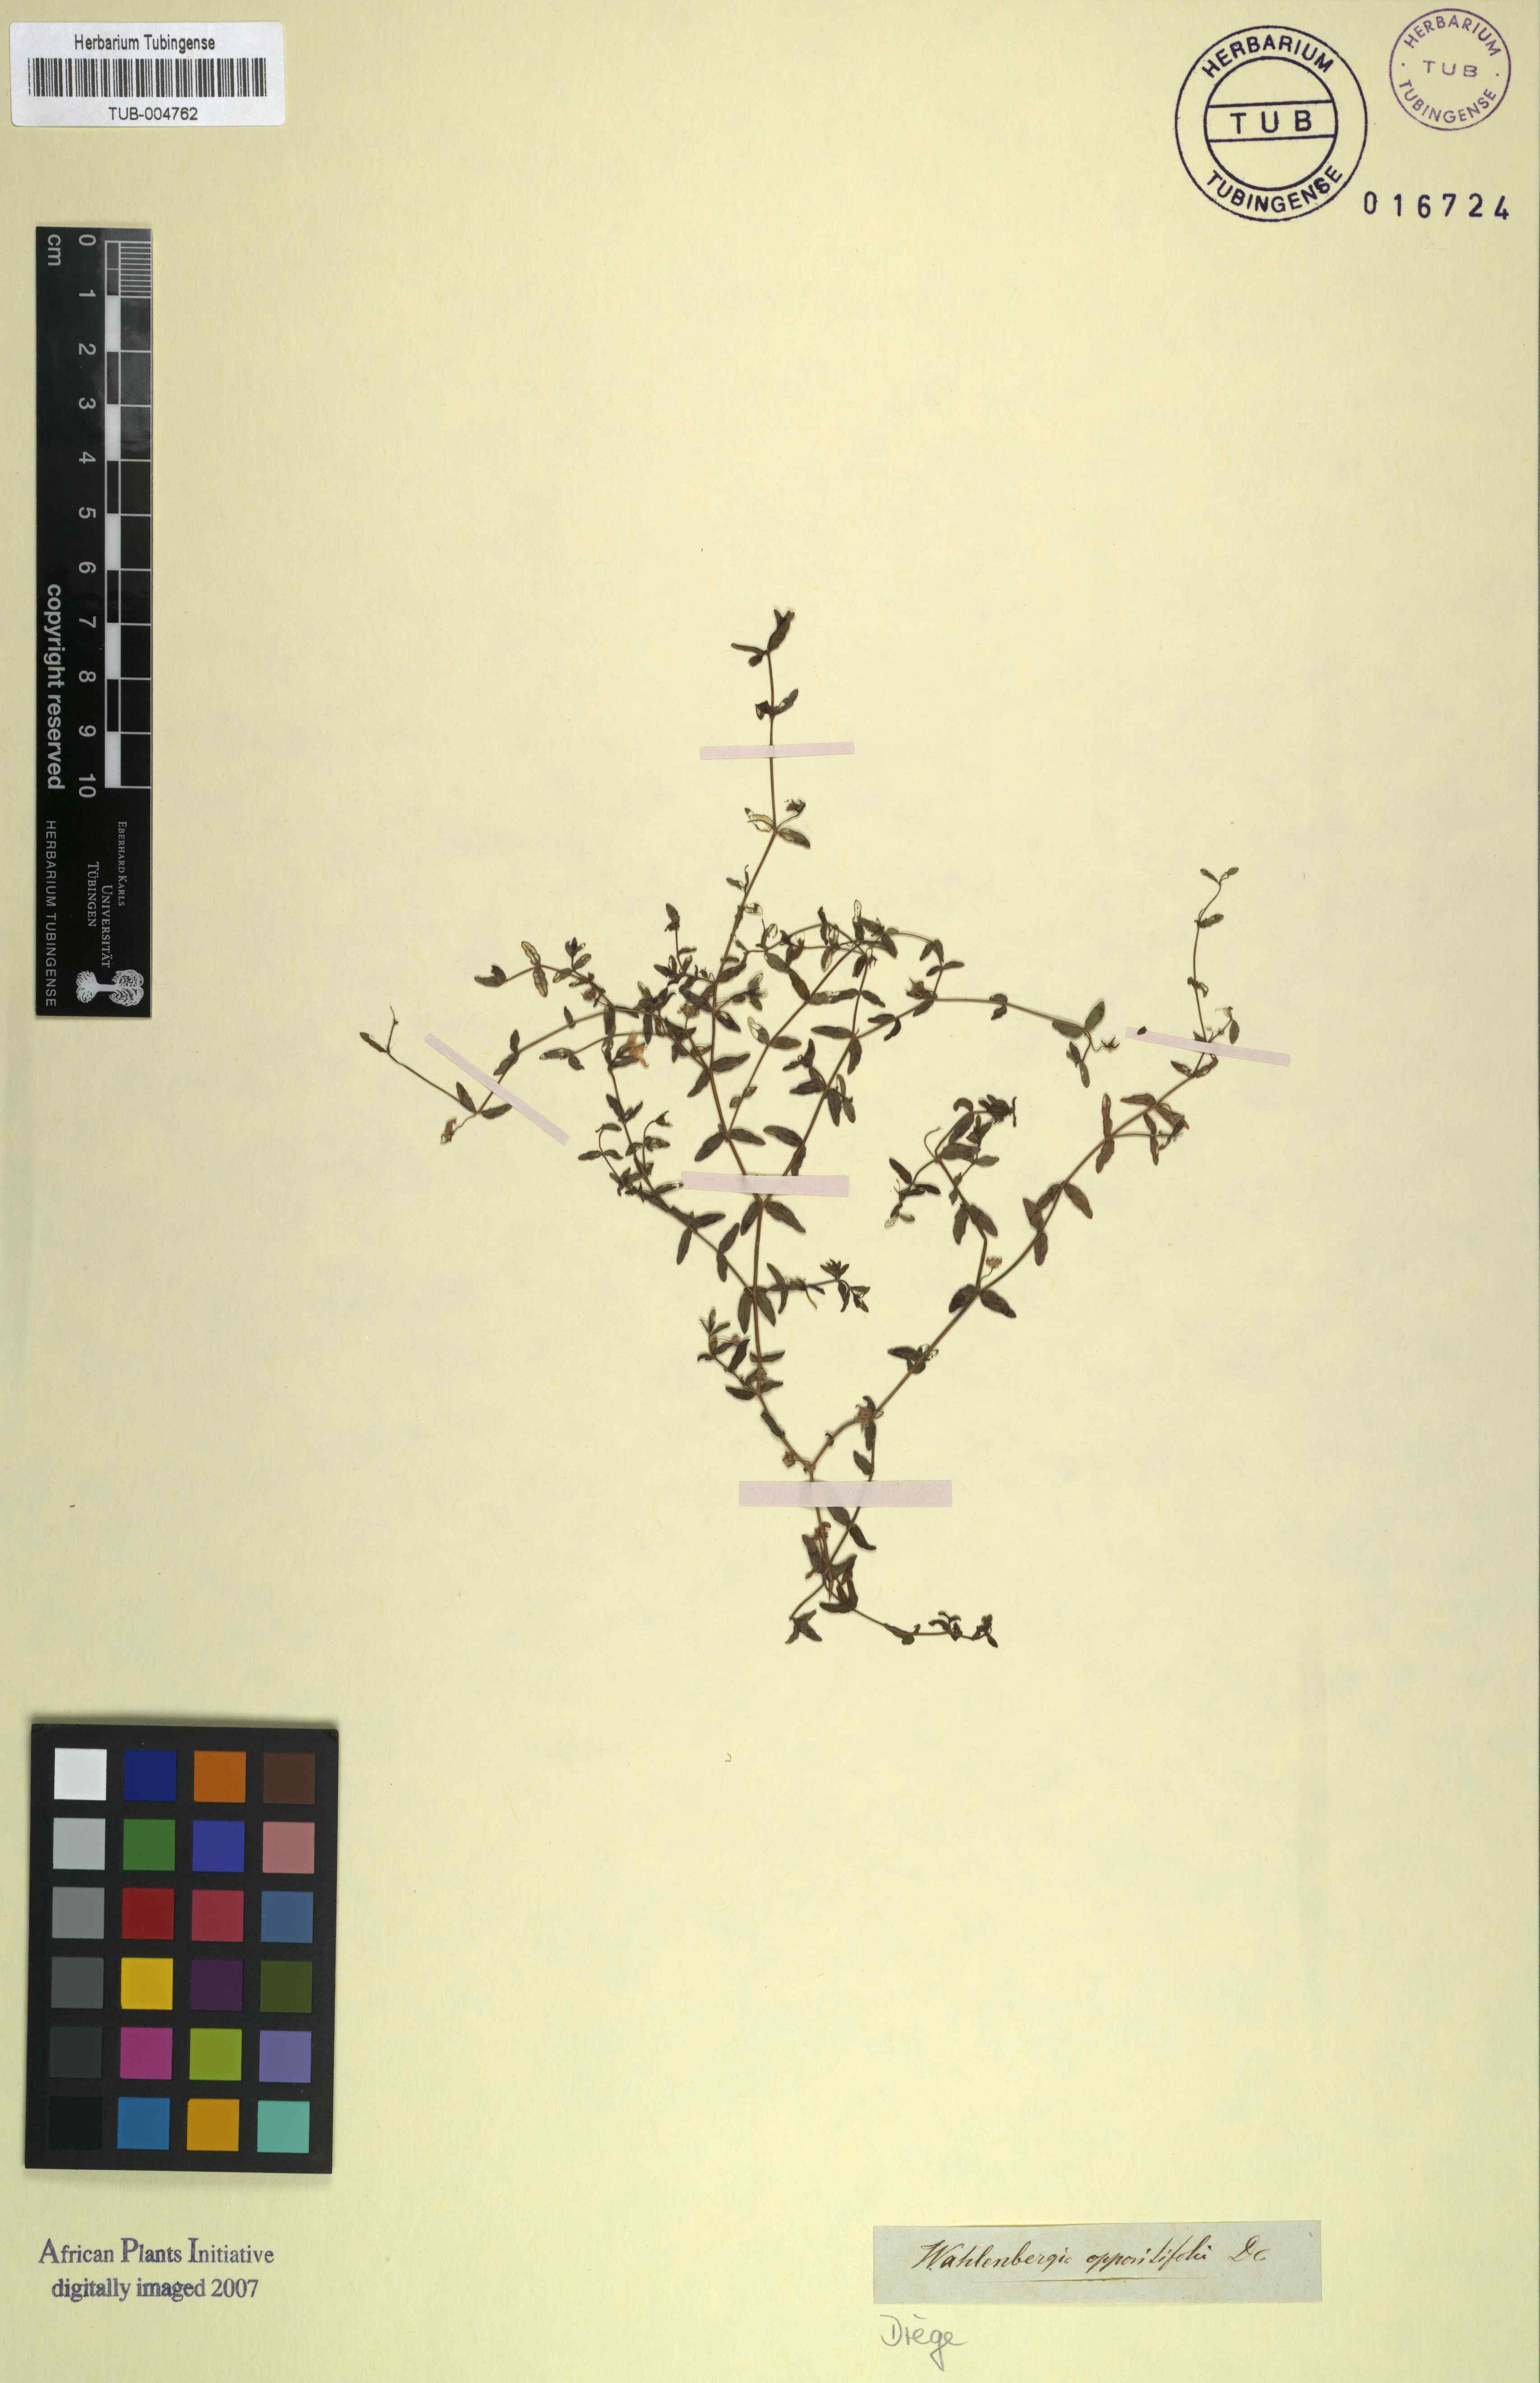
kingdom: Plantae
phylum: Tracheophyta
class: Magnoliopsida
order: Asterales
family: Campanulaceae
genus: Wahlenbergia
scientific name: Wahlenbergia madagascariensis
